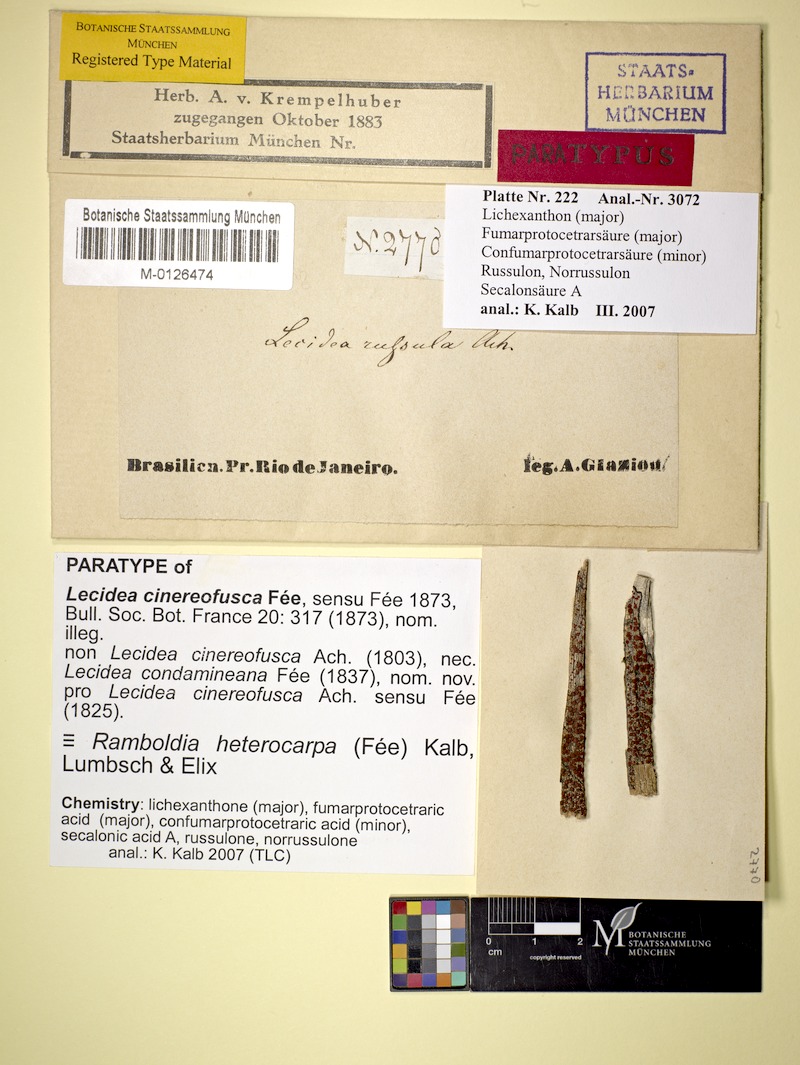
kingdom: Fungi
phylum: Ascomycota
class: Lecanoromycetes
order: Lecanorales
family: Ramboldiaceae
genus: Ramboldia
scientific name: Ramboldia heterocarpa
